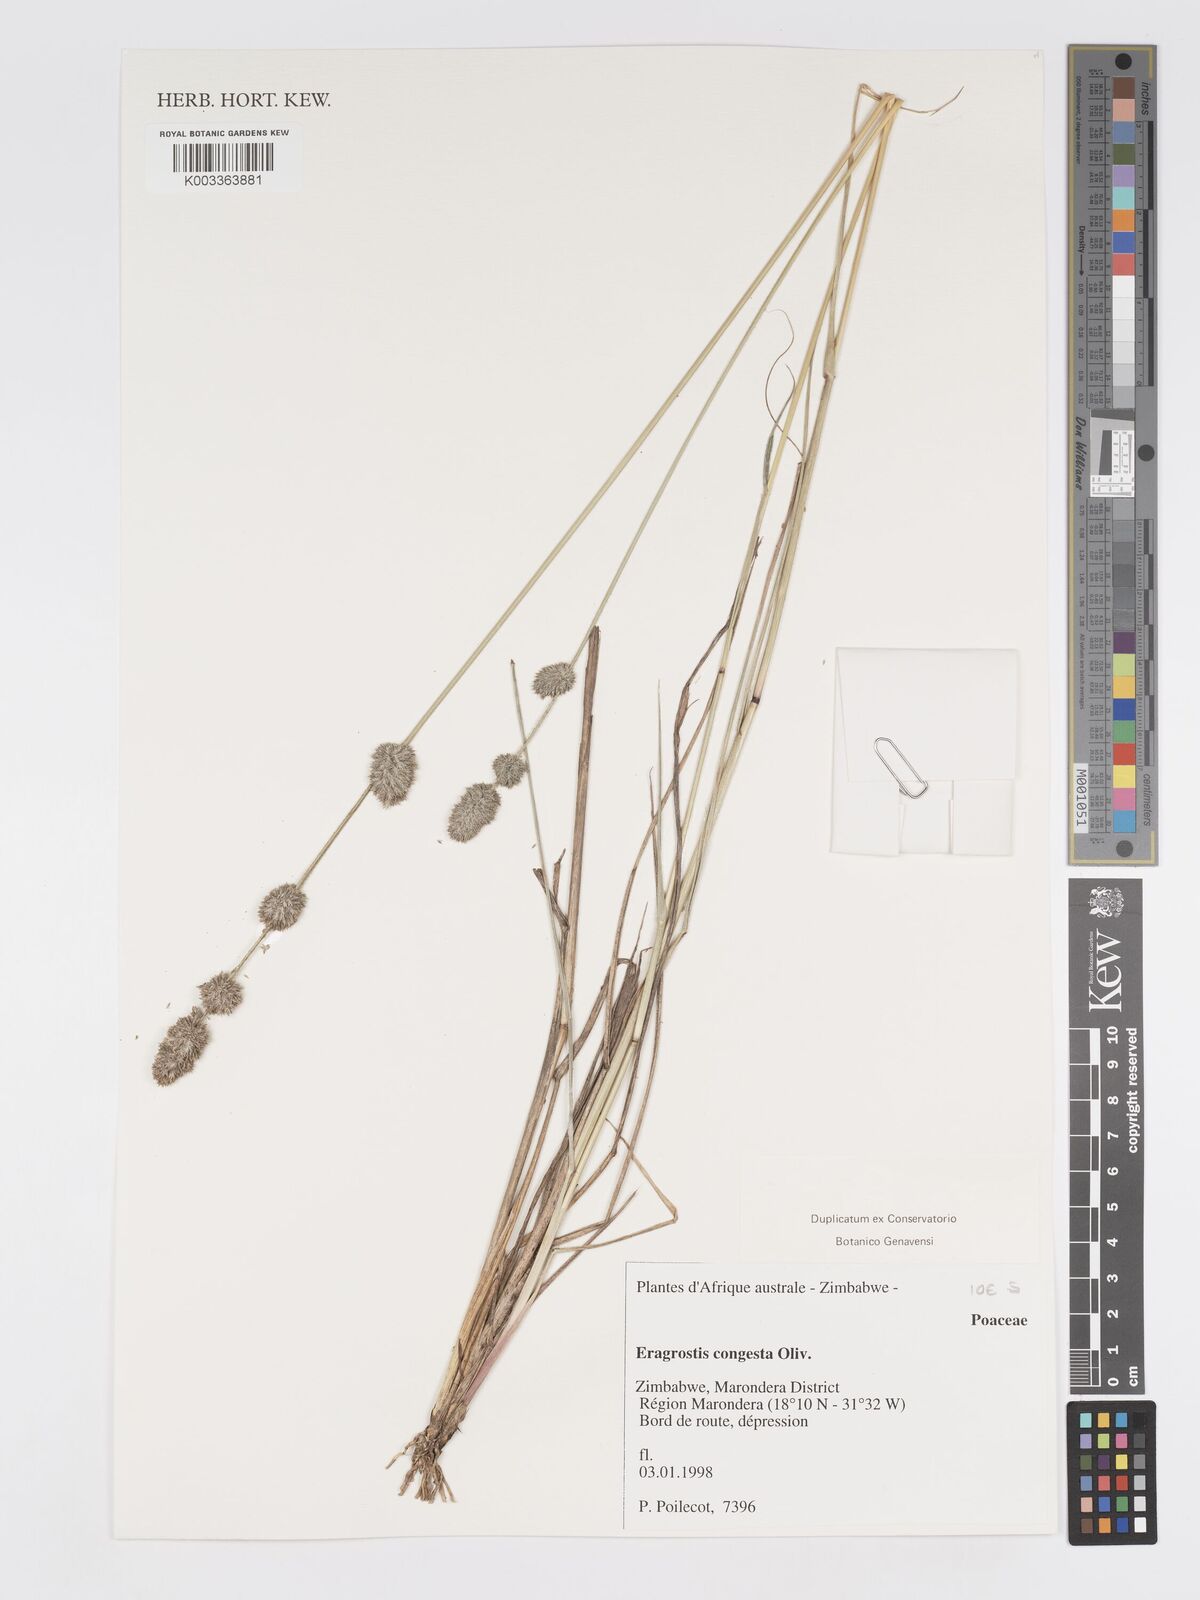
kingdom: Plantae
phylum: Tracheophyta
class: Liliopsida
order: Poales
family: Poaceae
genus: Eragrostis
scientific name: Eragrostis congesta
